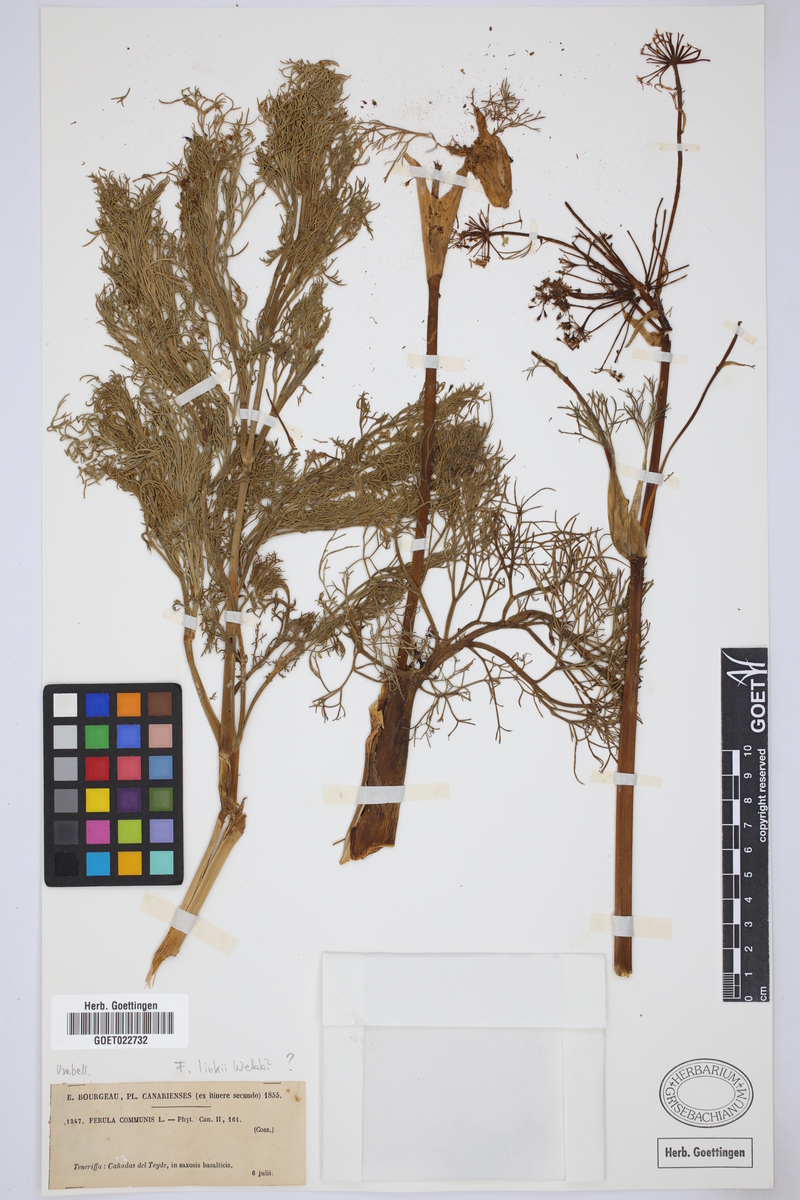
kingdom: Plantae
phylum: Tracheophyta
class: Magnoliopsida
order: Apiales
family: Apiaceae
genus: Ferula
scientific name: Ferula communis
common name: Giant fennel
